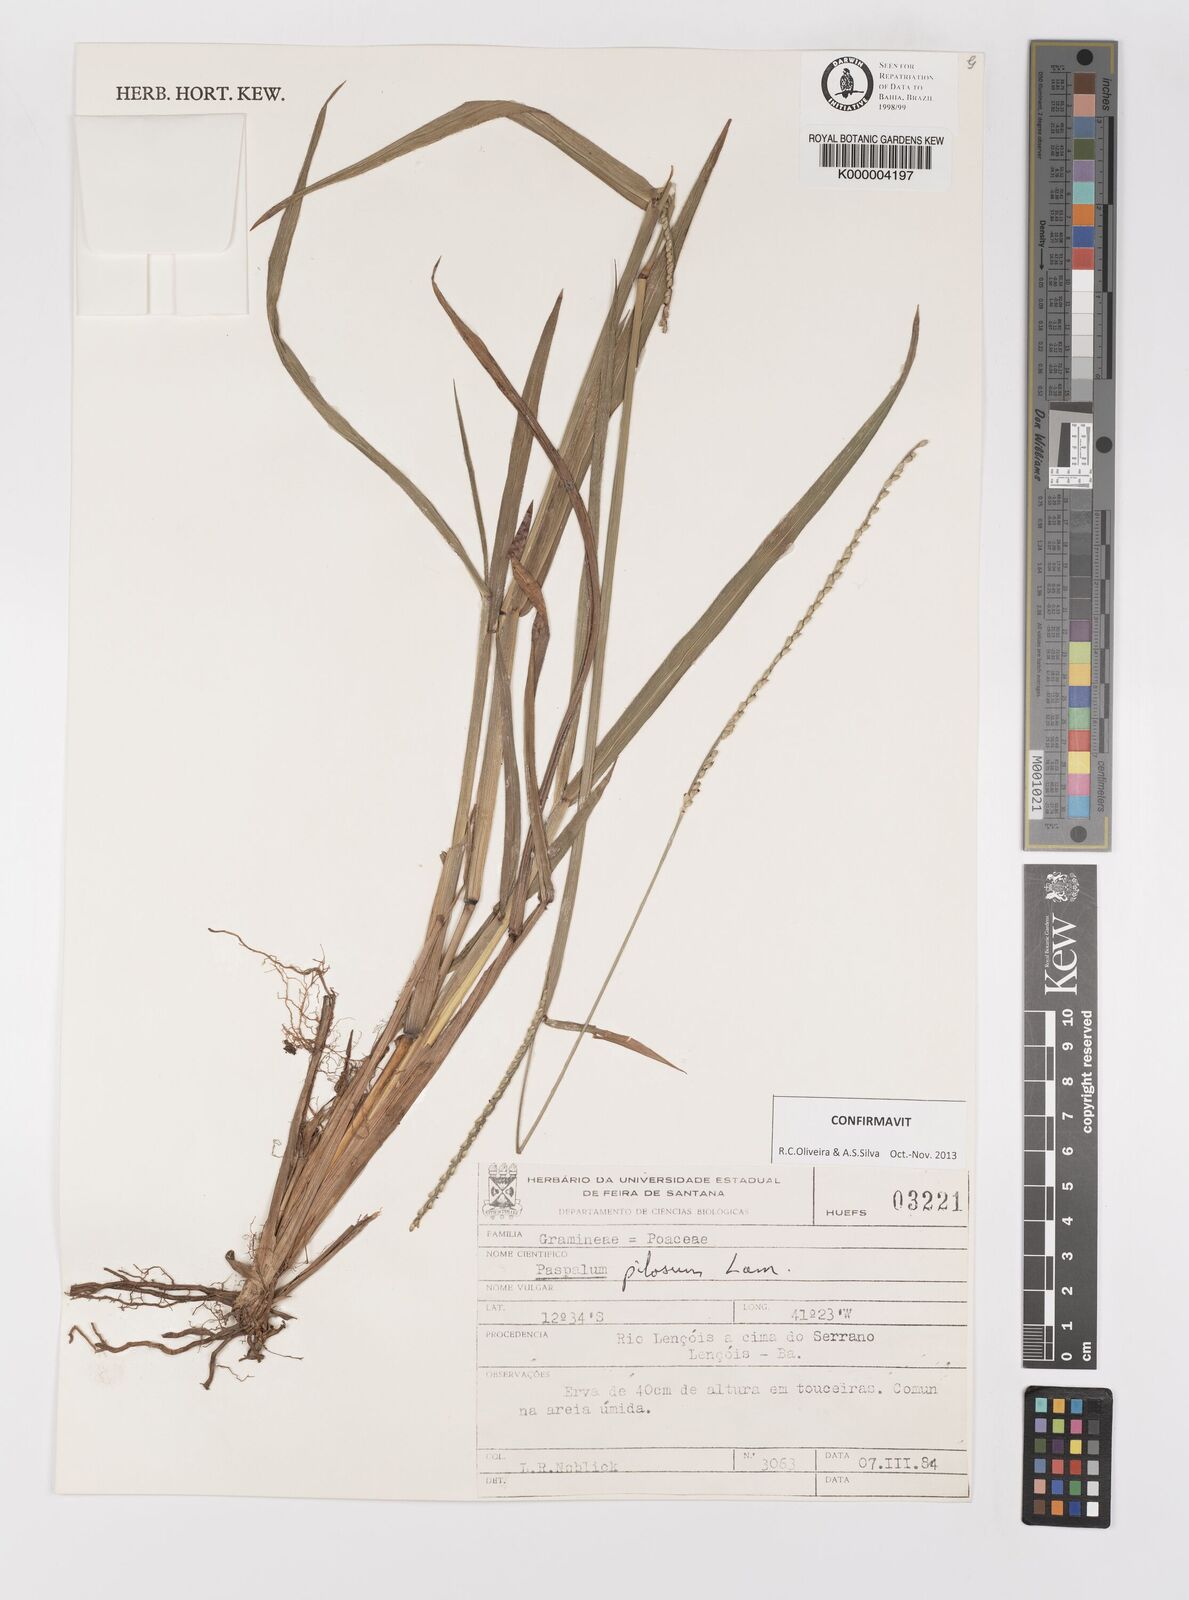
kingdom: Plantae
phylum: Tracheophyta
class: Liliopsida
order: Poales
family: Poaceae
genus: Paspalum
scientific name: Paspalum pilosum
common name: Crowngrass
